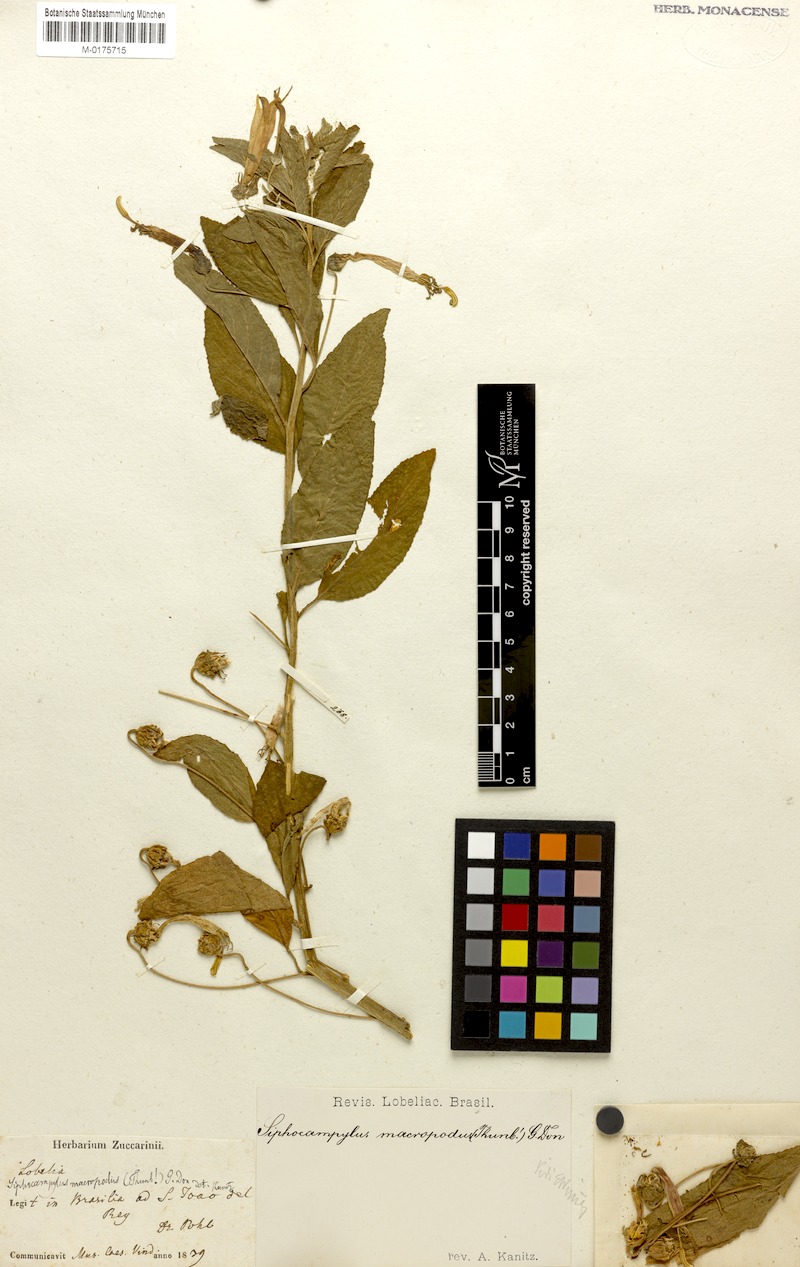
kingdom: Plantae
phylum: Tracheophyta
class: Magnoliopsida
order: Asterales
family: Campanulaceae
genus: Siphocampylus
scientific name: Siphocampylus macropodus
